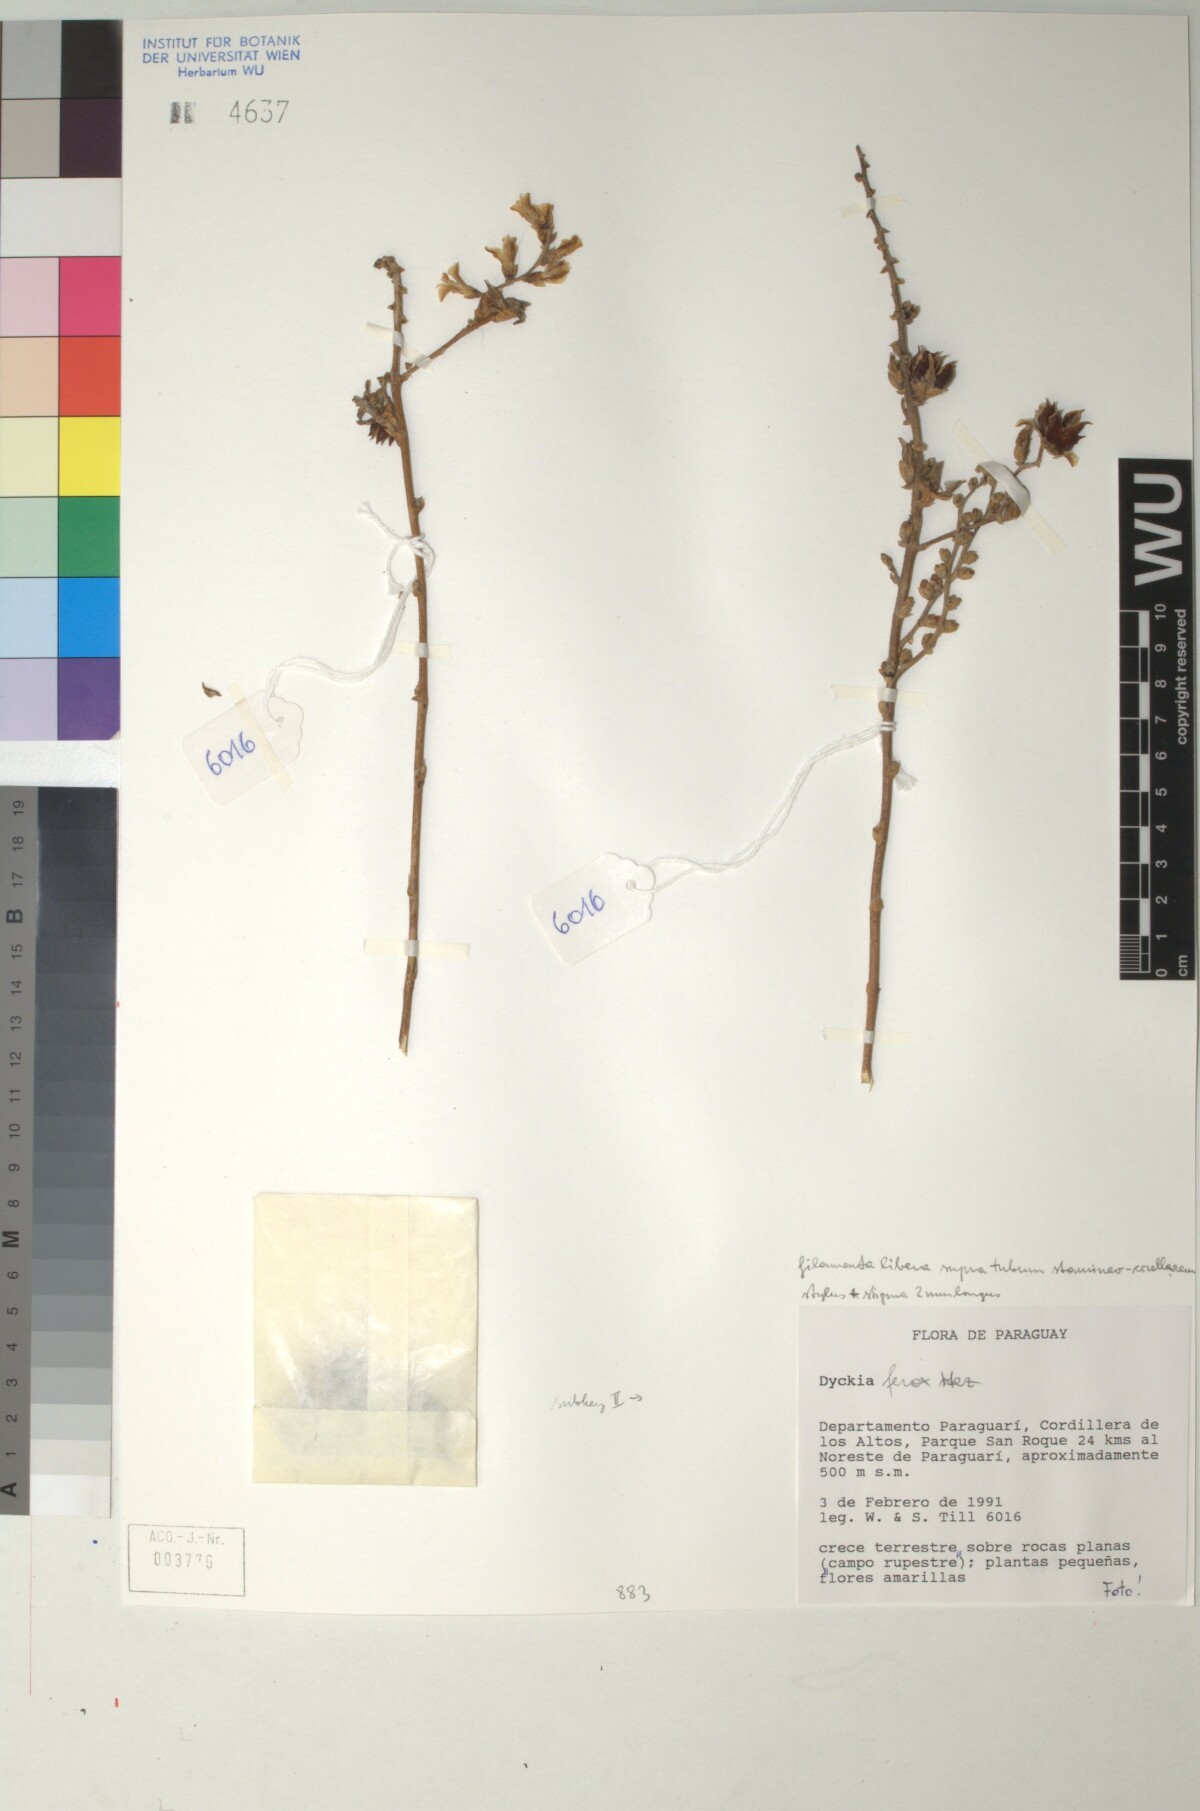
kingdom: Plantae
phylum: Tracheophyta
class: Liliopsida
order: Poales
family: Bromeliaceae
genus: Dyckia
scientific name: Dyckia ferox
